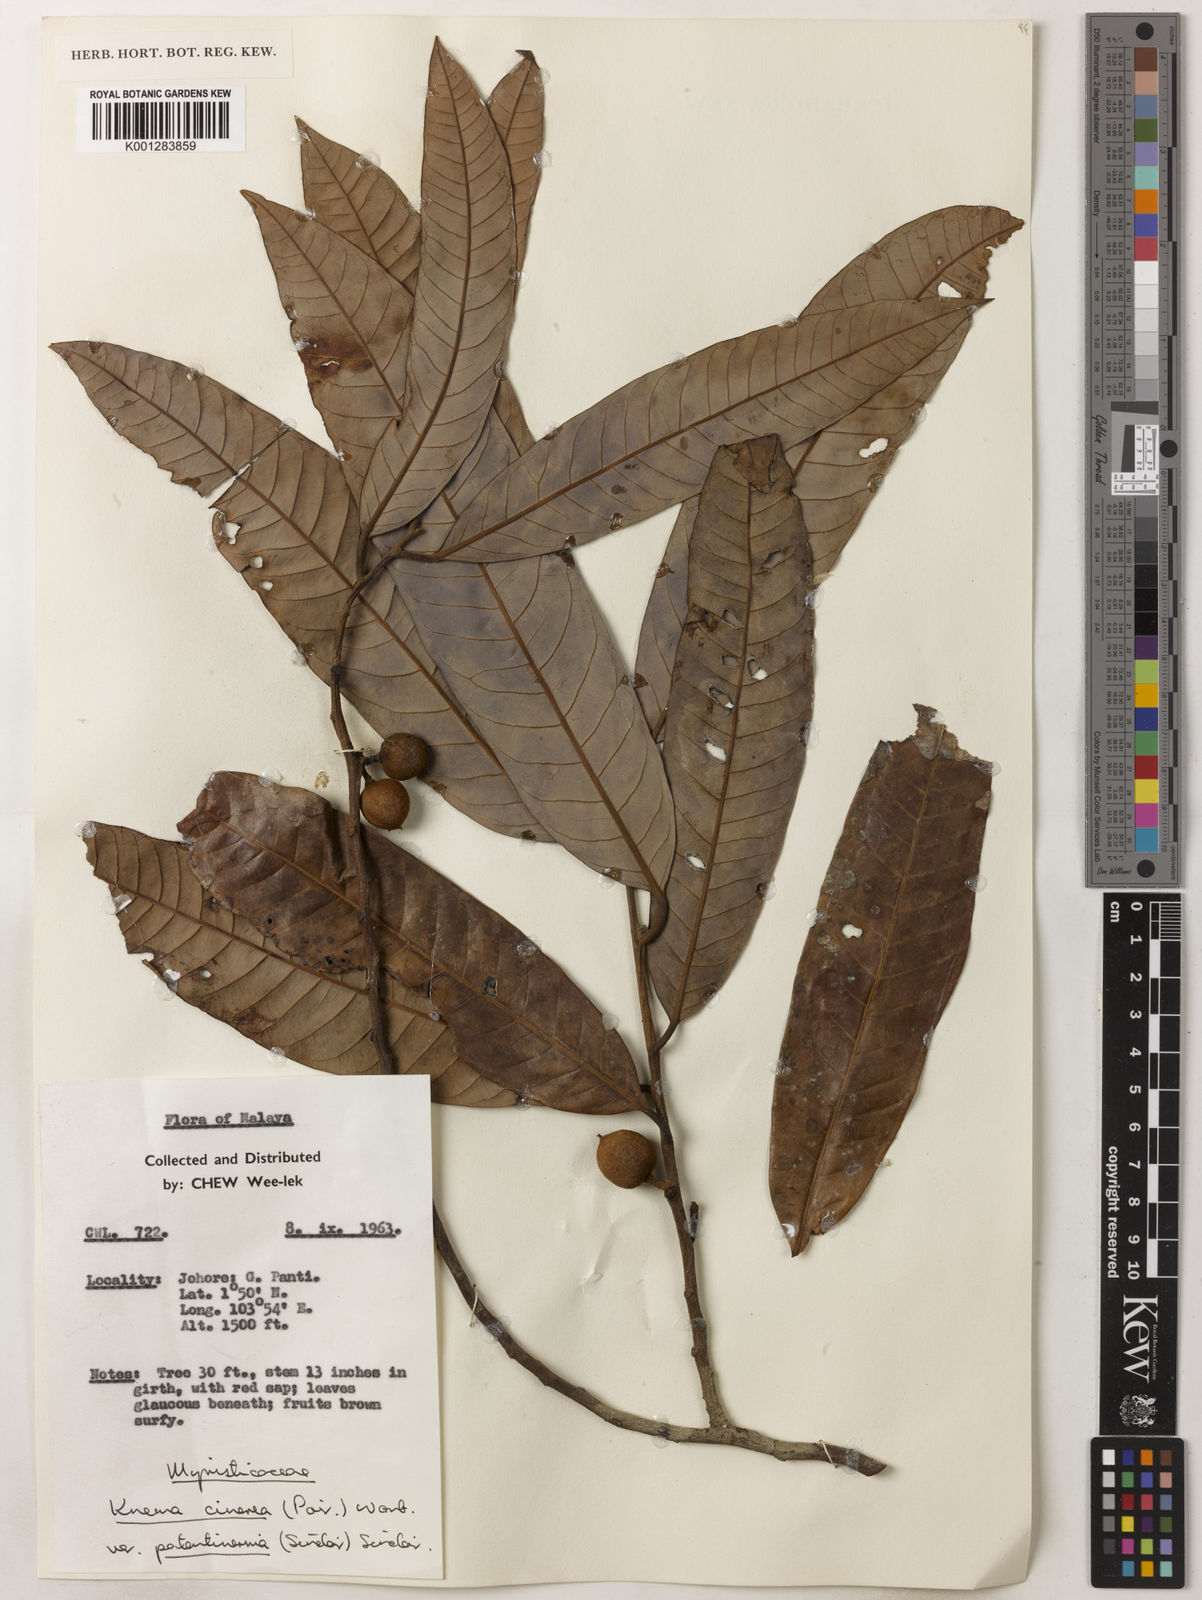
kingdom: Plantae
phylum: Tracheophyta
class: Magnoliopsida
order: Magnoliales
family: Myristicaceae
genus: Knema
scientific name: Knema
